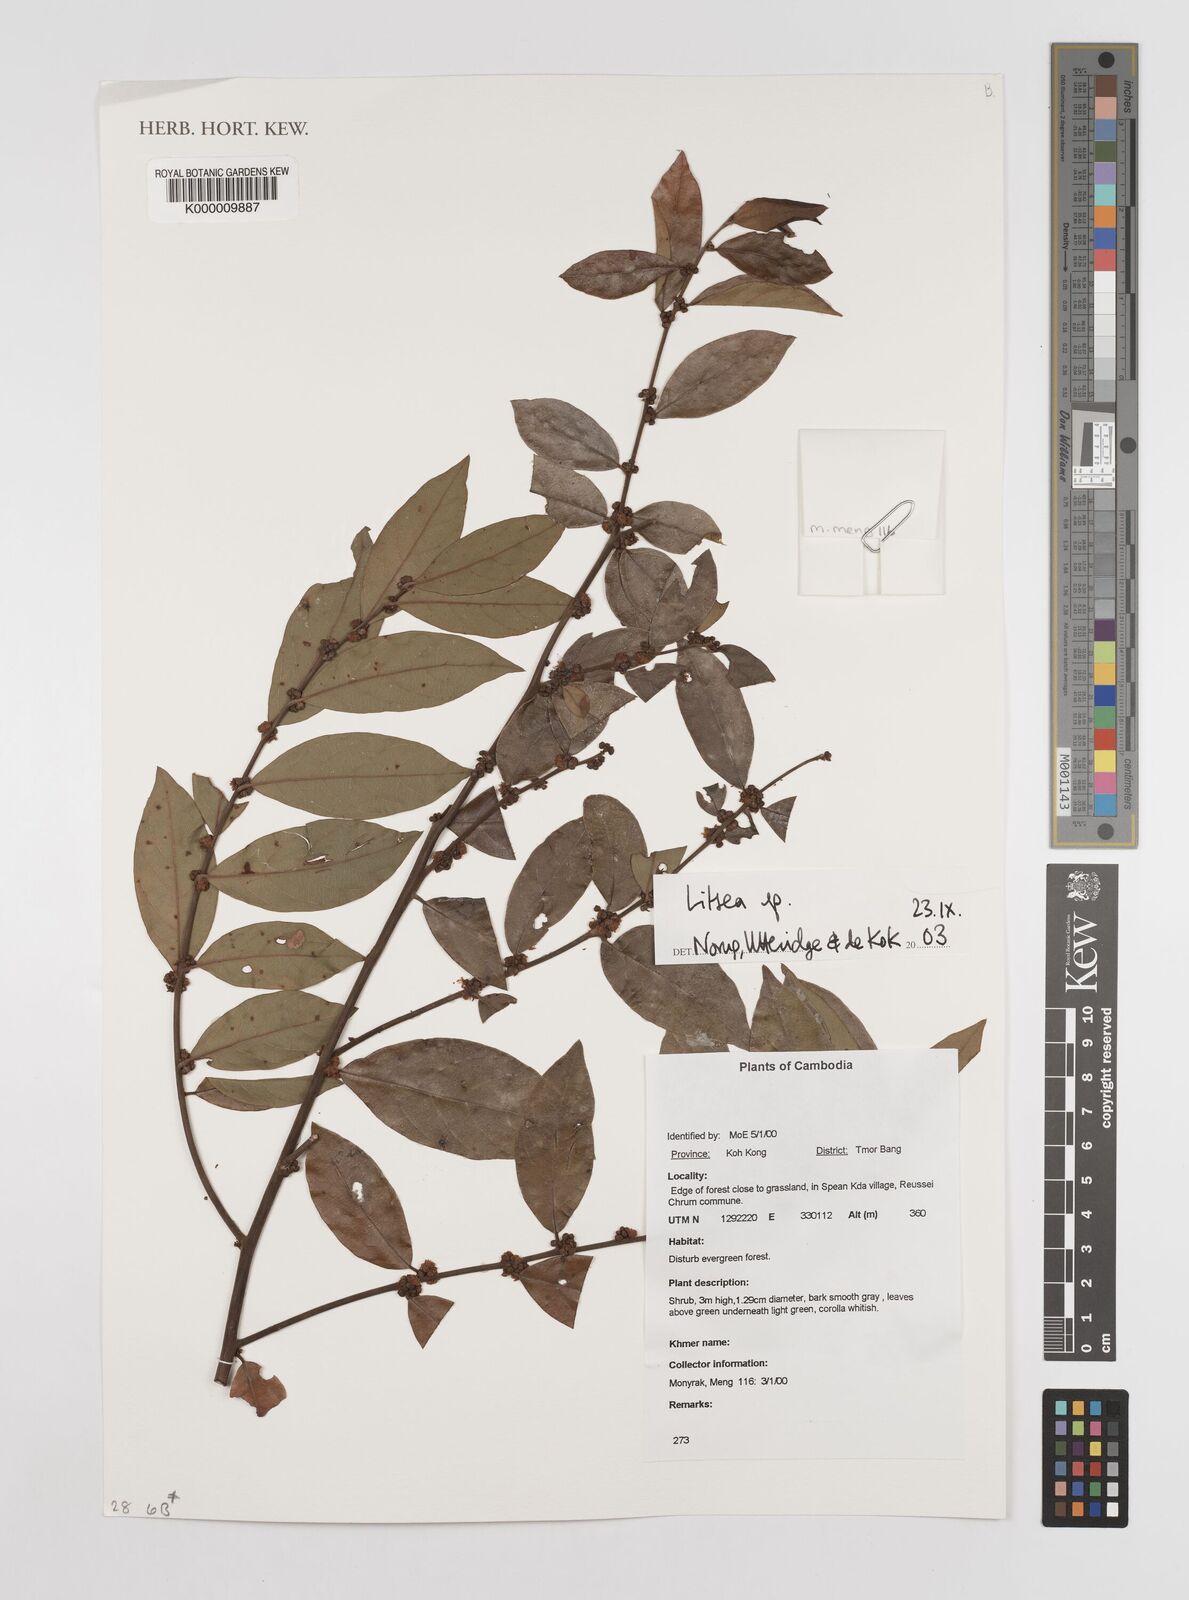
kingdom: Plantae
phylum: Tracheophyta
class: Magnoliopsida
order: Laurales
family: Lauraceae
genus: Litsea
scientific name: Litsea
